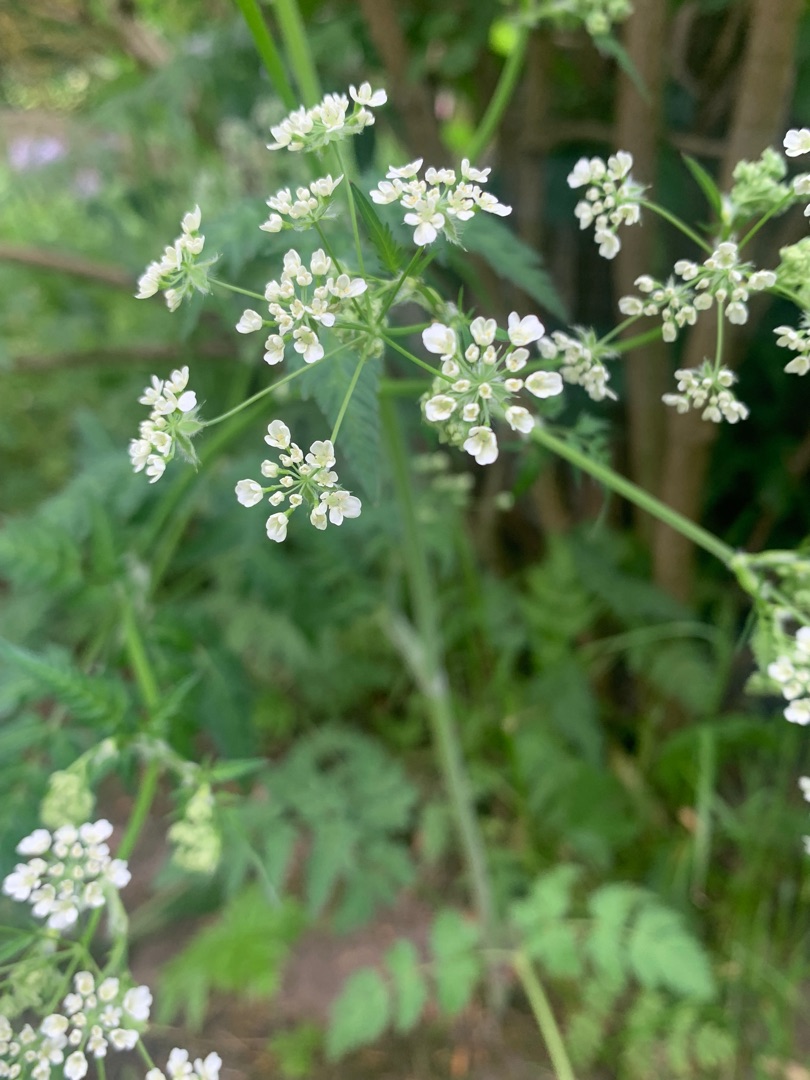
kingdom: Plantae
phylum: Tracheophyta
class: Magnoliopsida
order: Apiales
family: Apiaceae
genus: Anthriscus
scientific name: Anthriscus sylvestris
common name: Vild kørvel
